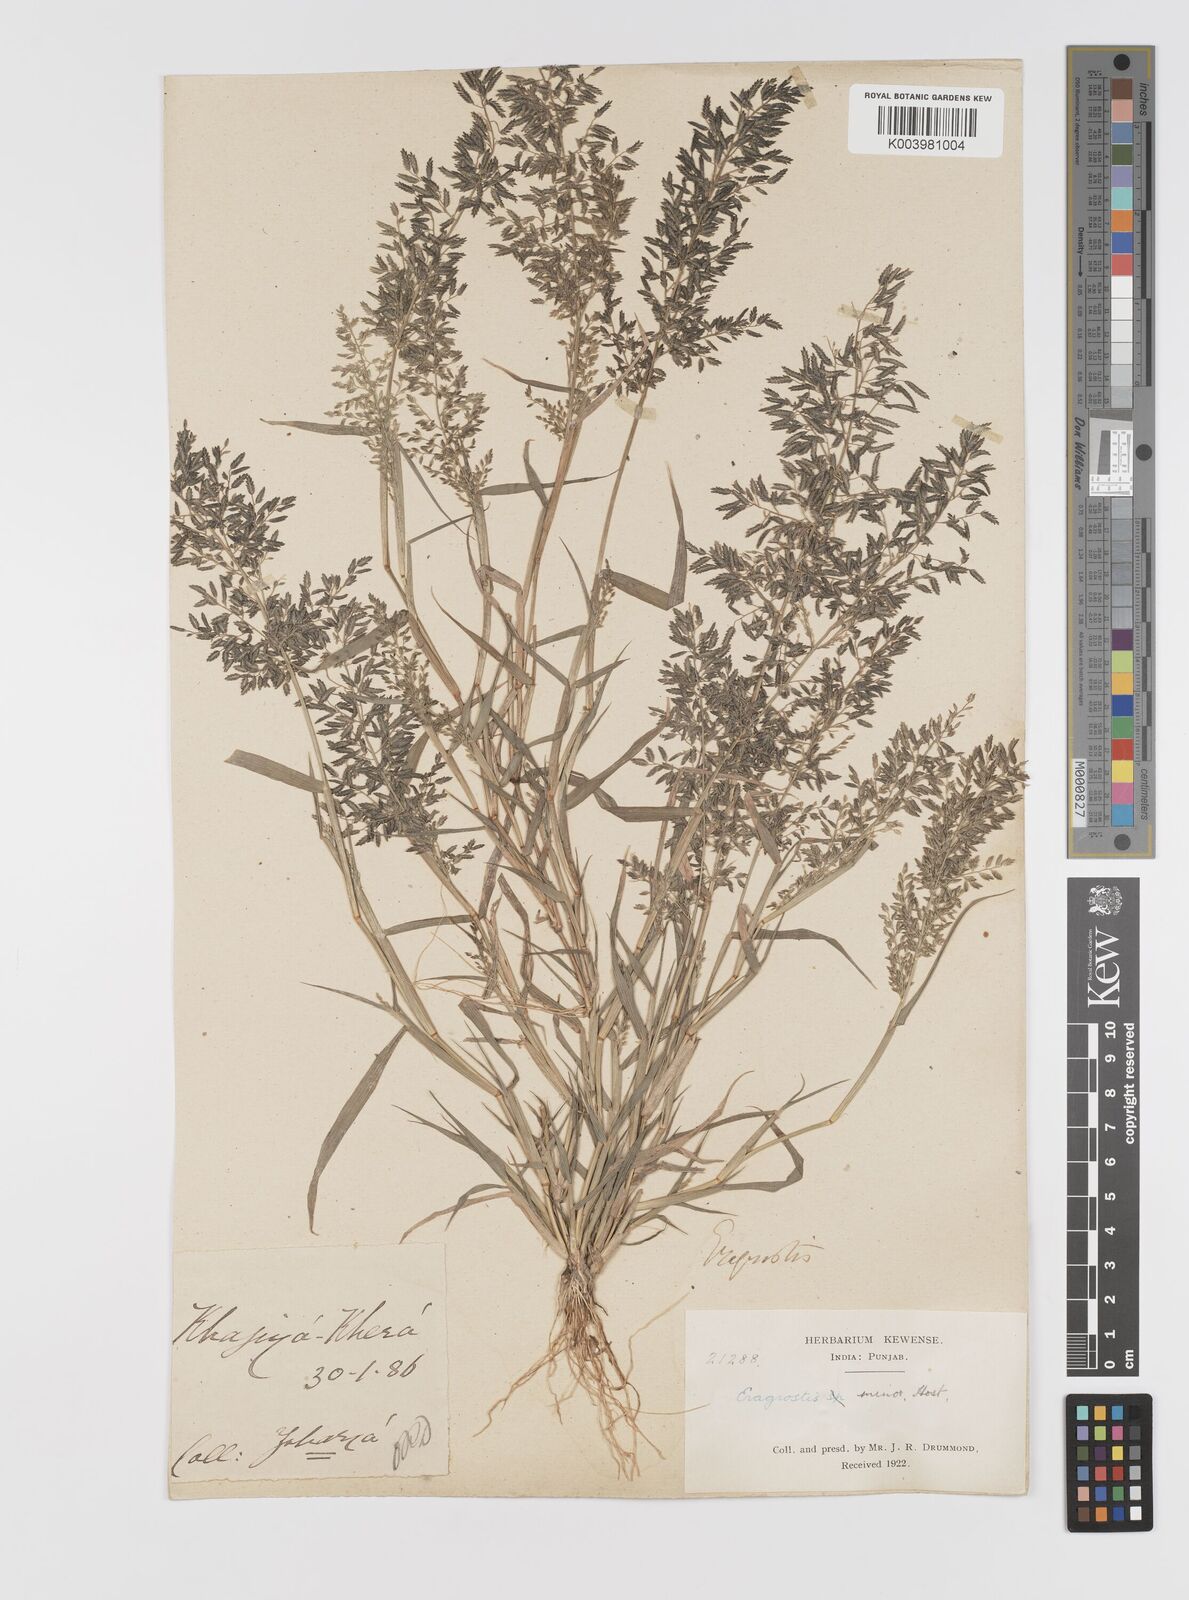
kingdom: Plantae
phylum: Tracheophyta
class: Liliopsida
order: Poales
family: Poaceae
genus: Eragrostis
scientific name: Eragrostis minor
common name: Small love-grass
